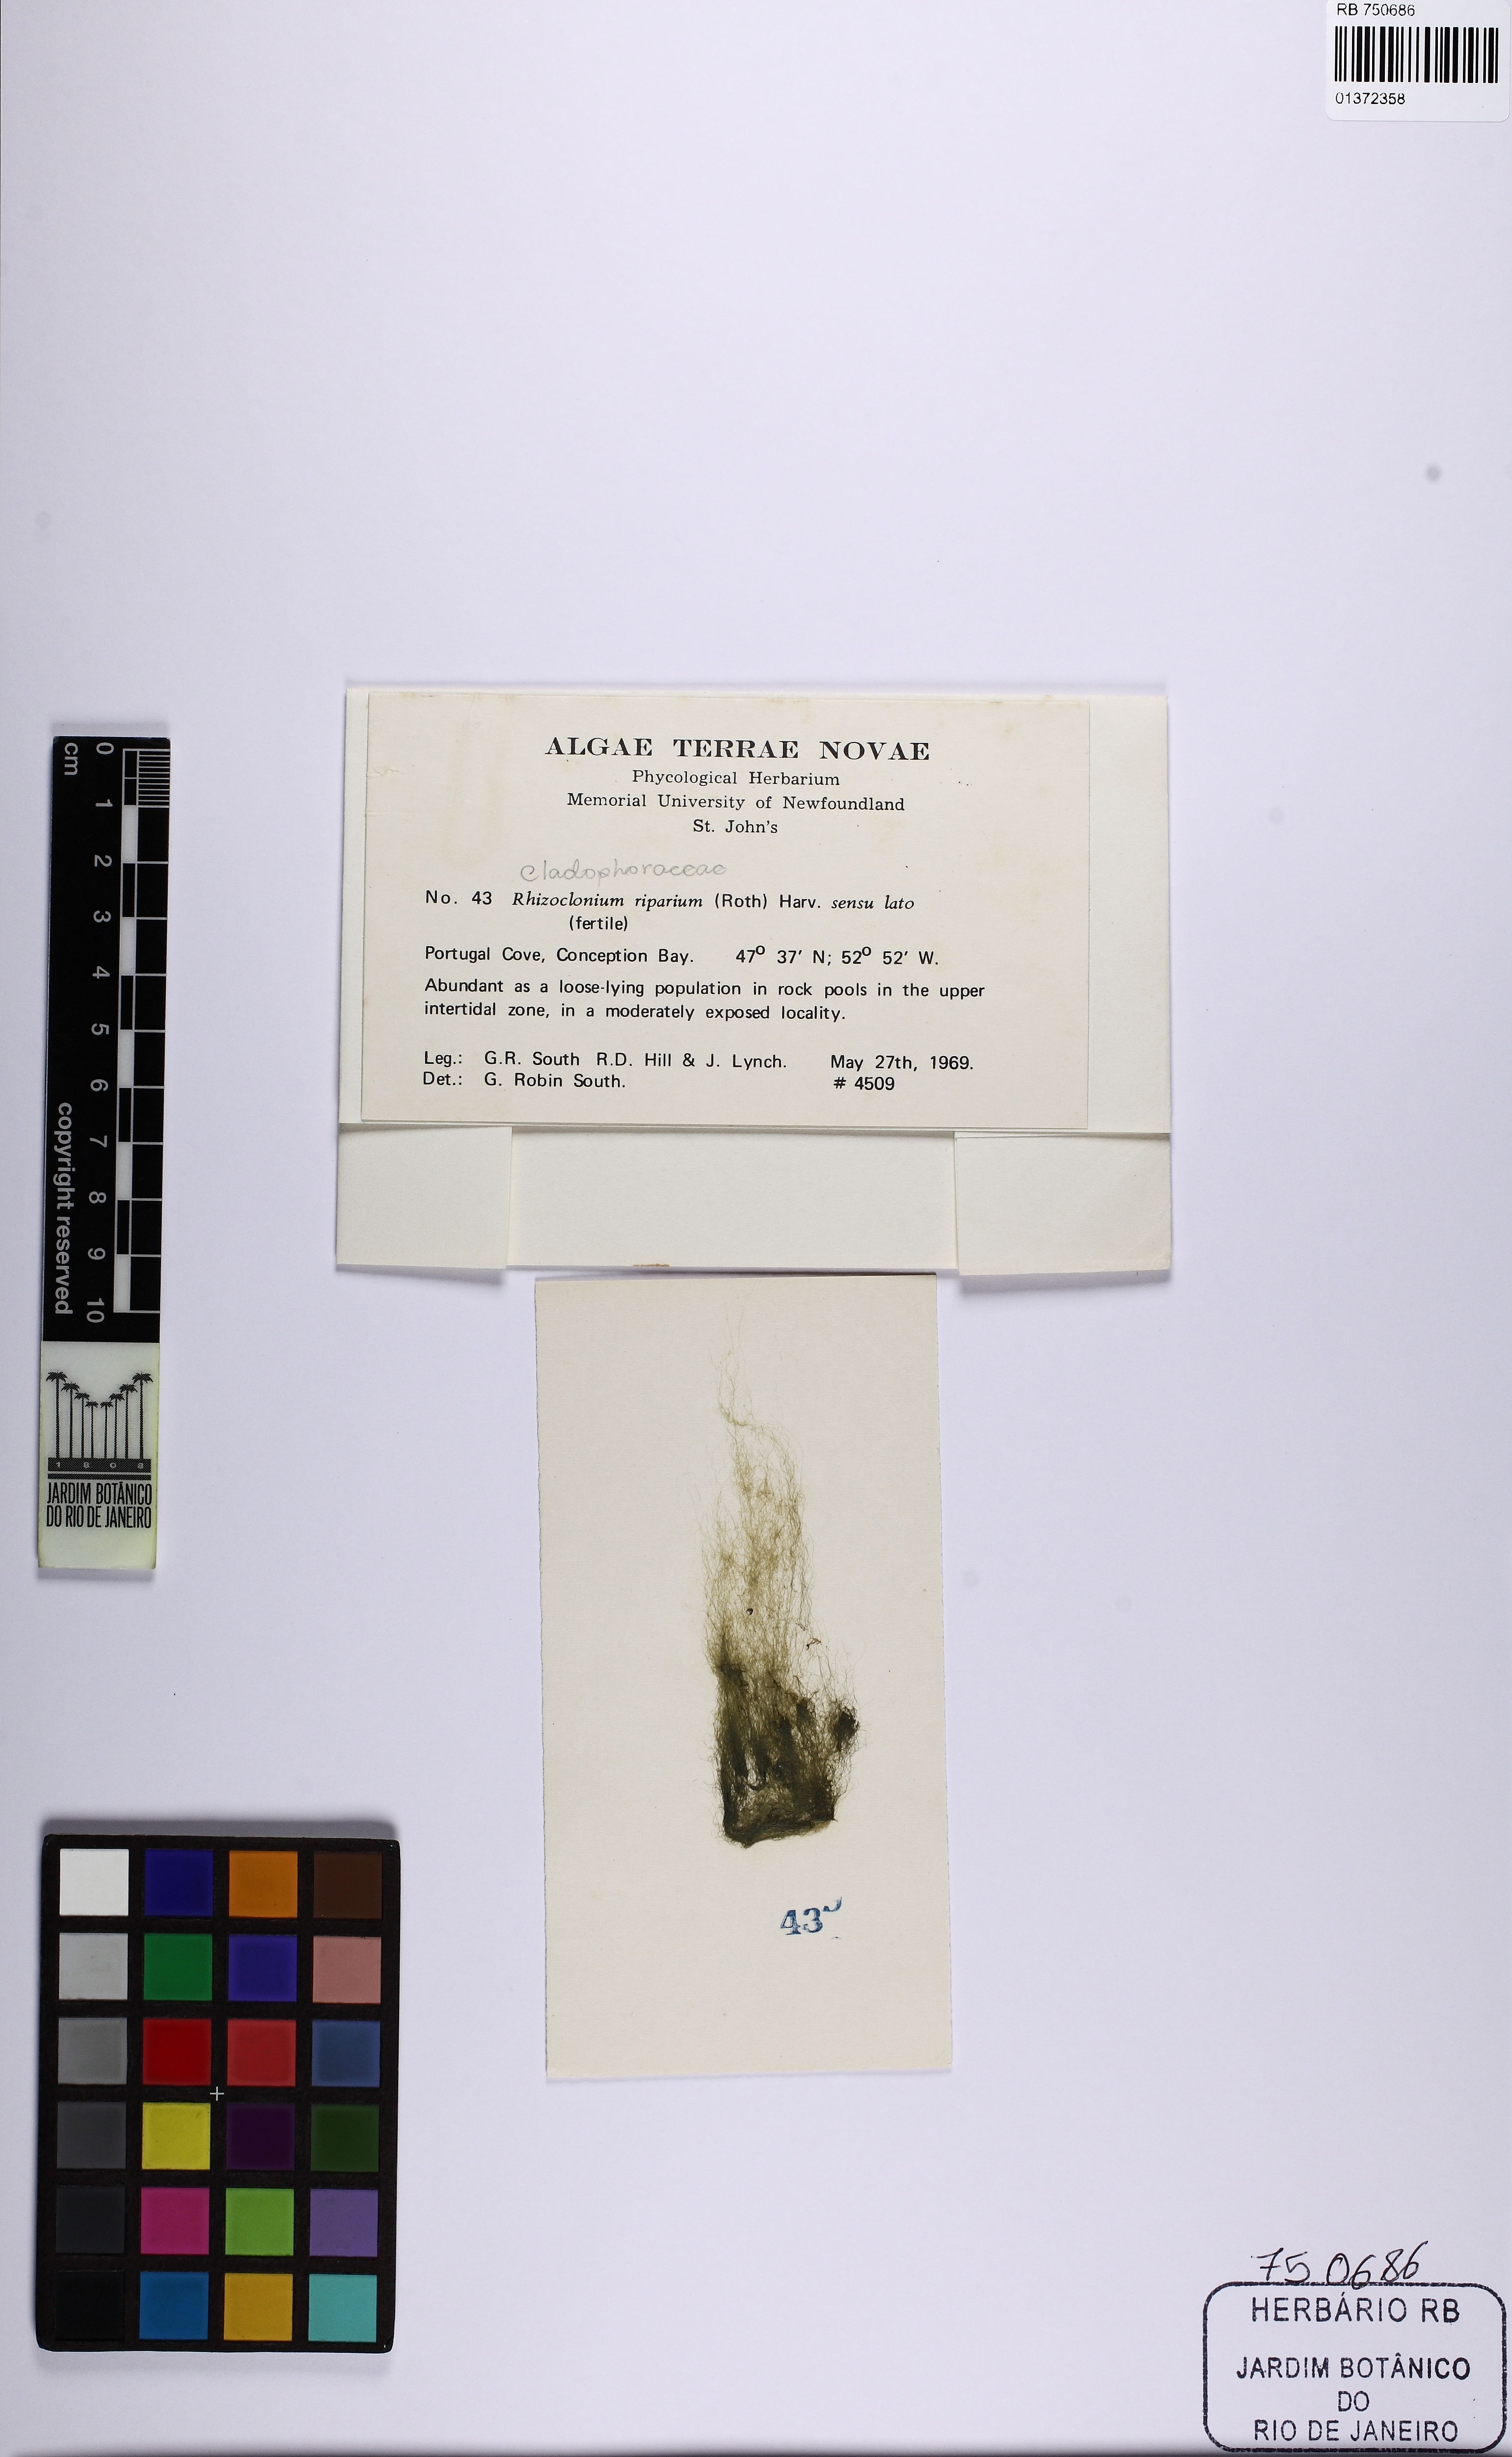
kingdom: Plantae
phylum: Chlorophyta
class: Ulvophyceae
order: Cladophorales
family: Cladophoraceae
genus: Rhizoclonium
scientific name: Rhizoclonium riparium
